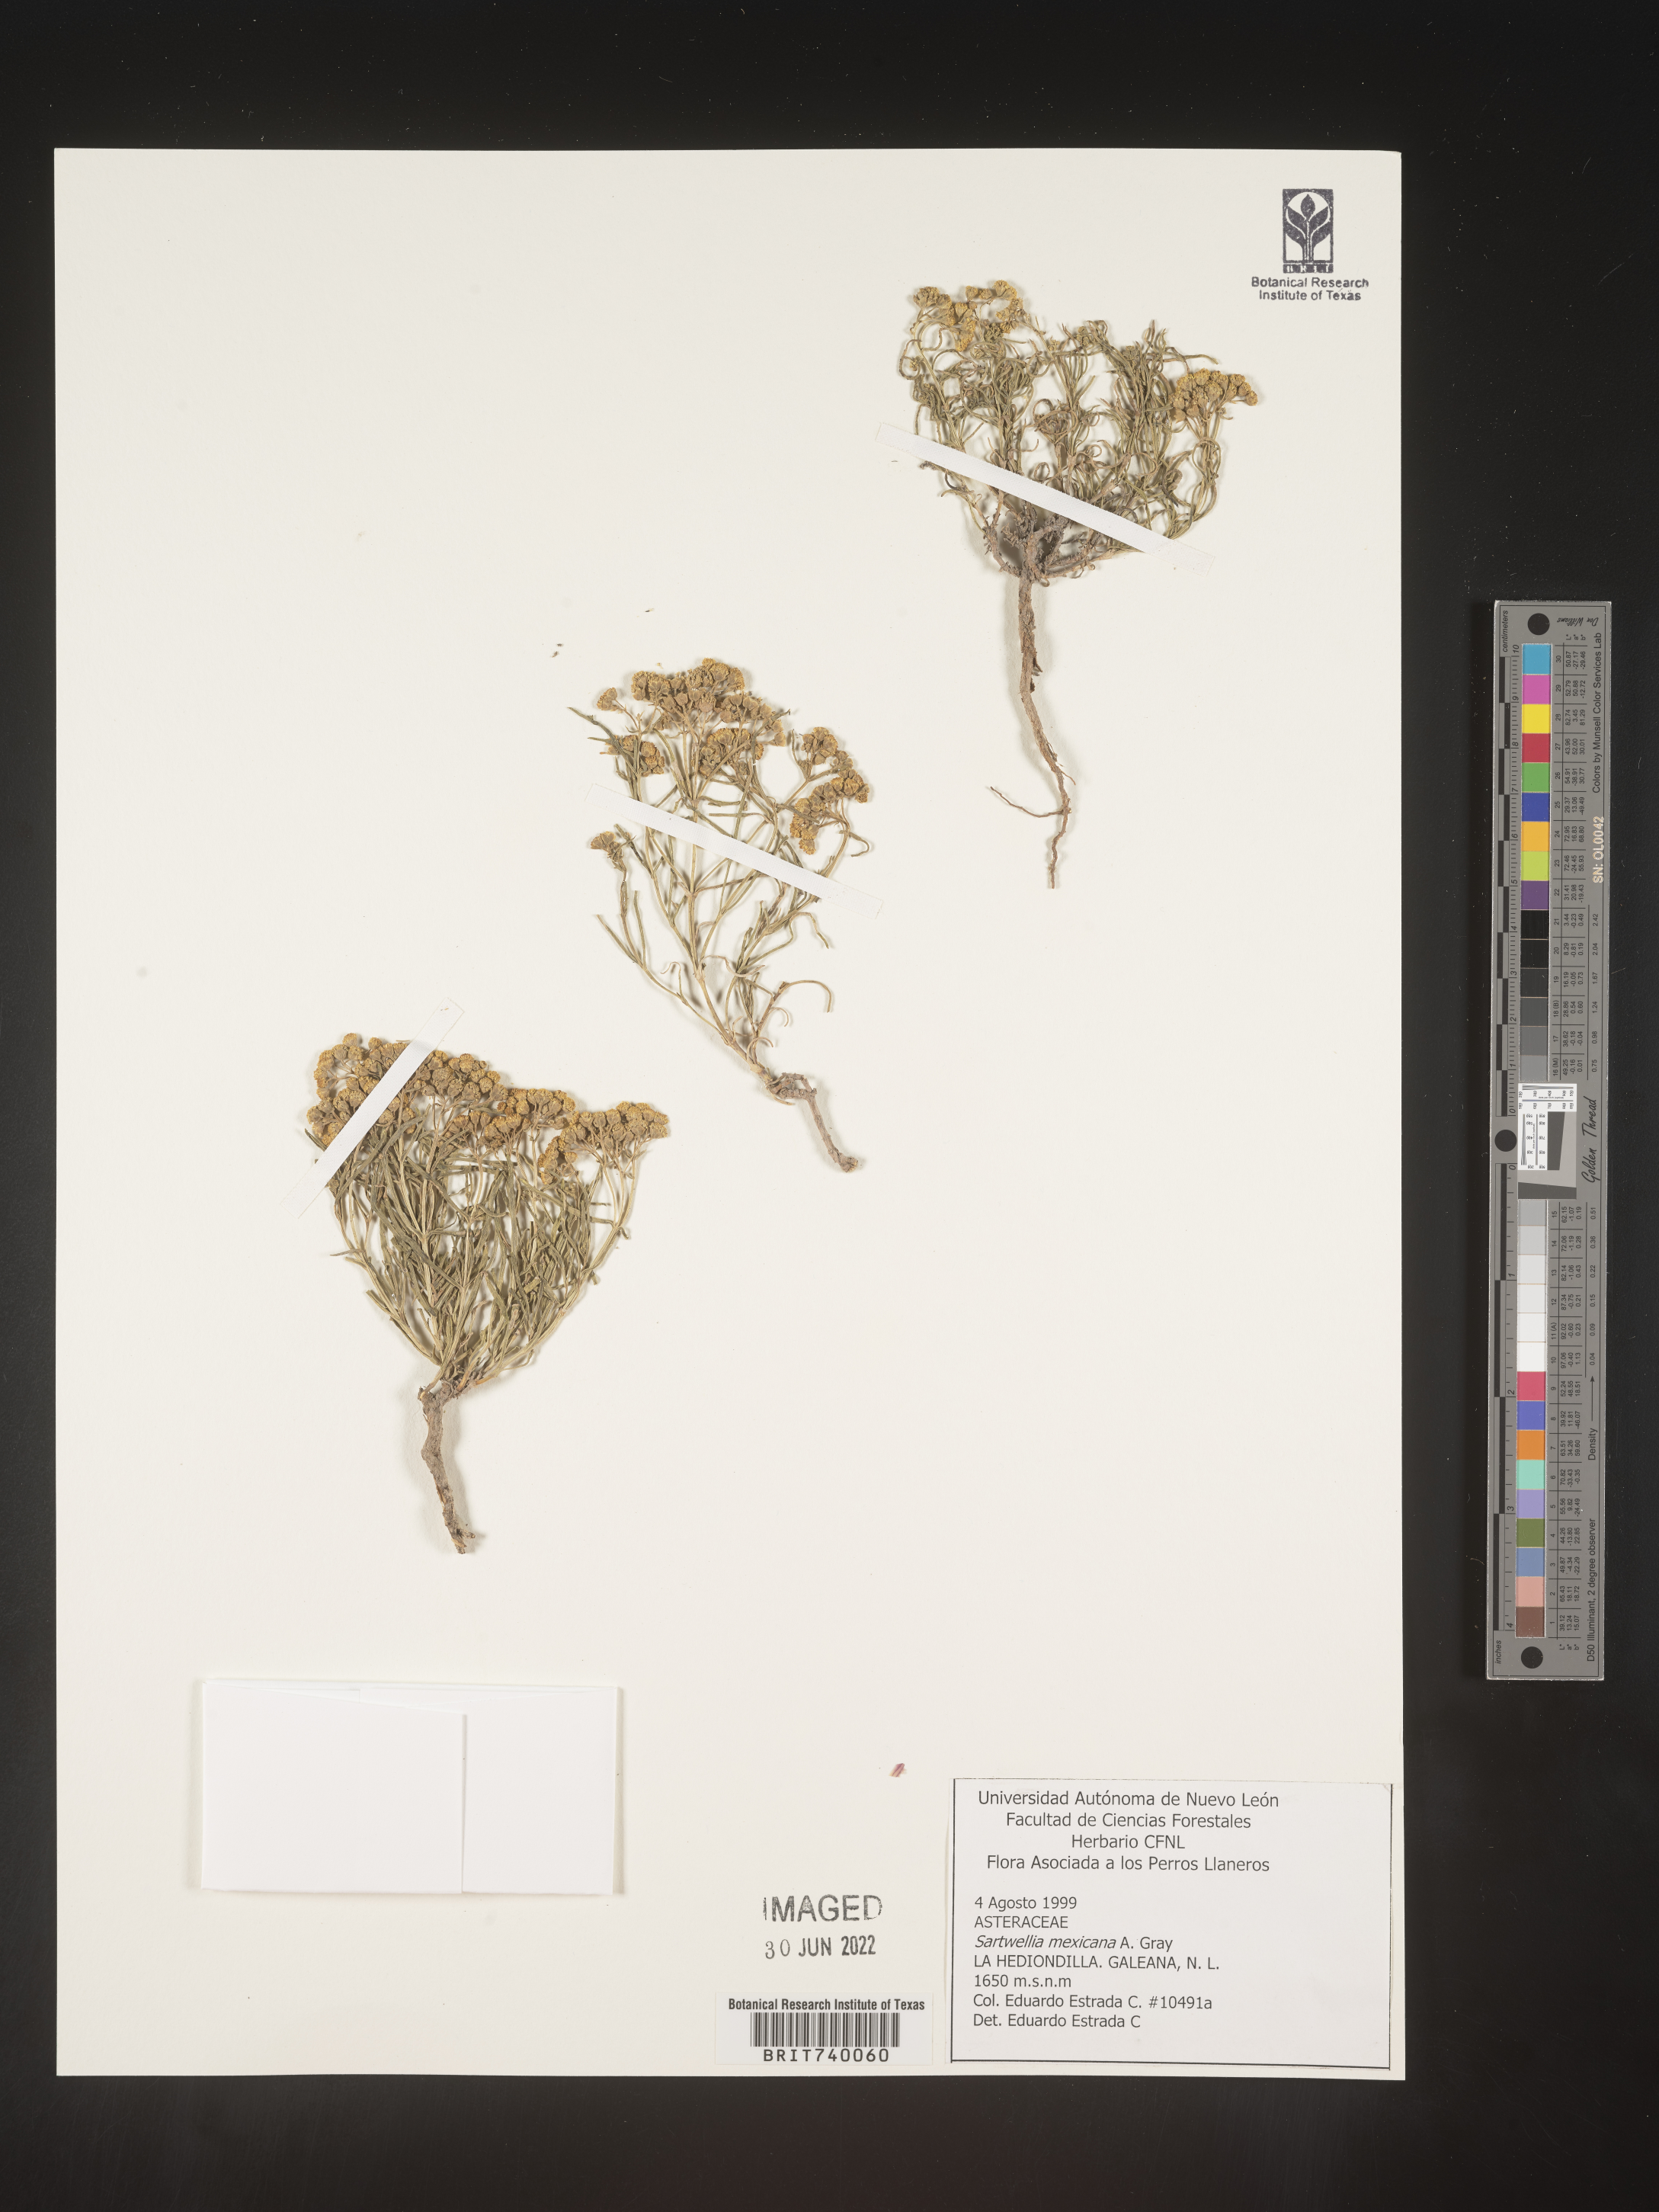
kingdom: Plantae
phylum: Tracheophyta
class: Magnoliopsida
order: Asterales
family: Asteraceae
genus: Sartwellia
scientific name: Sartwellia
